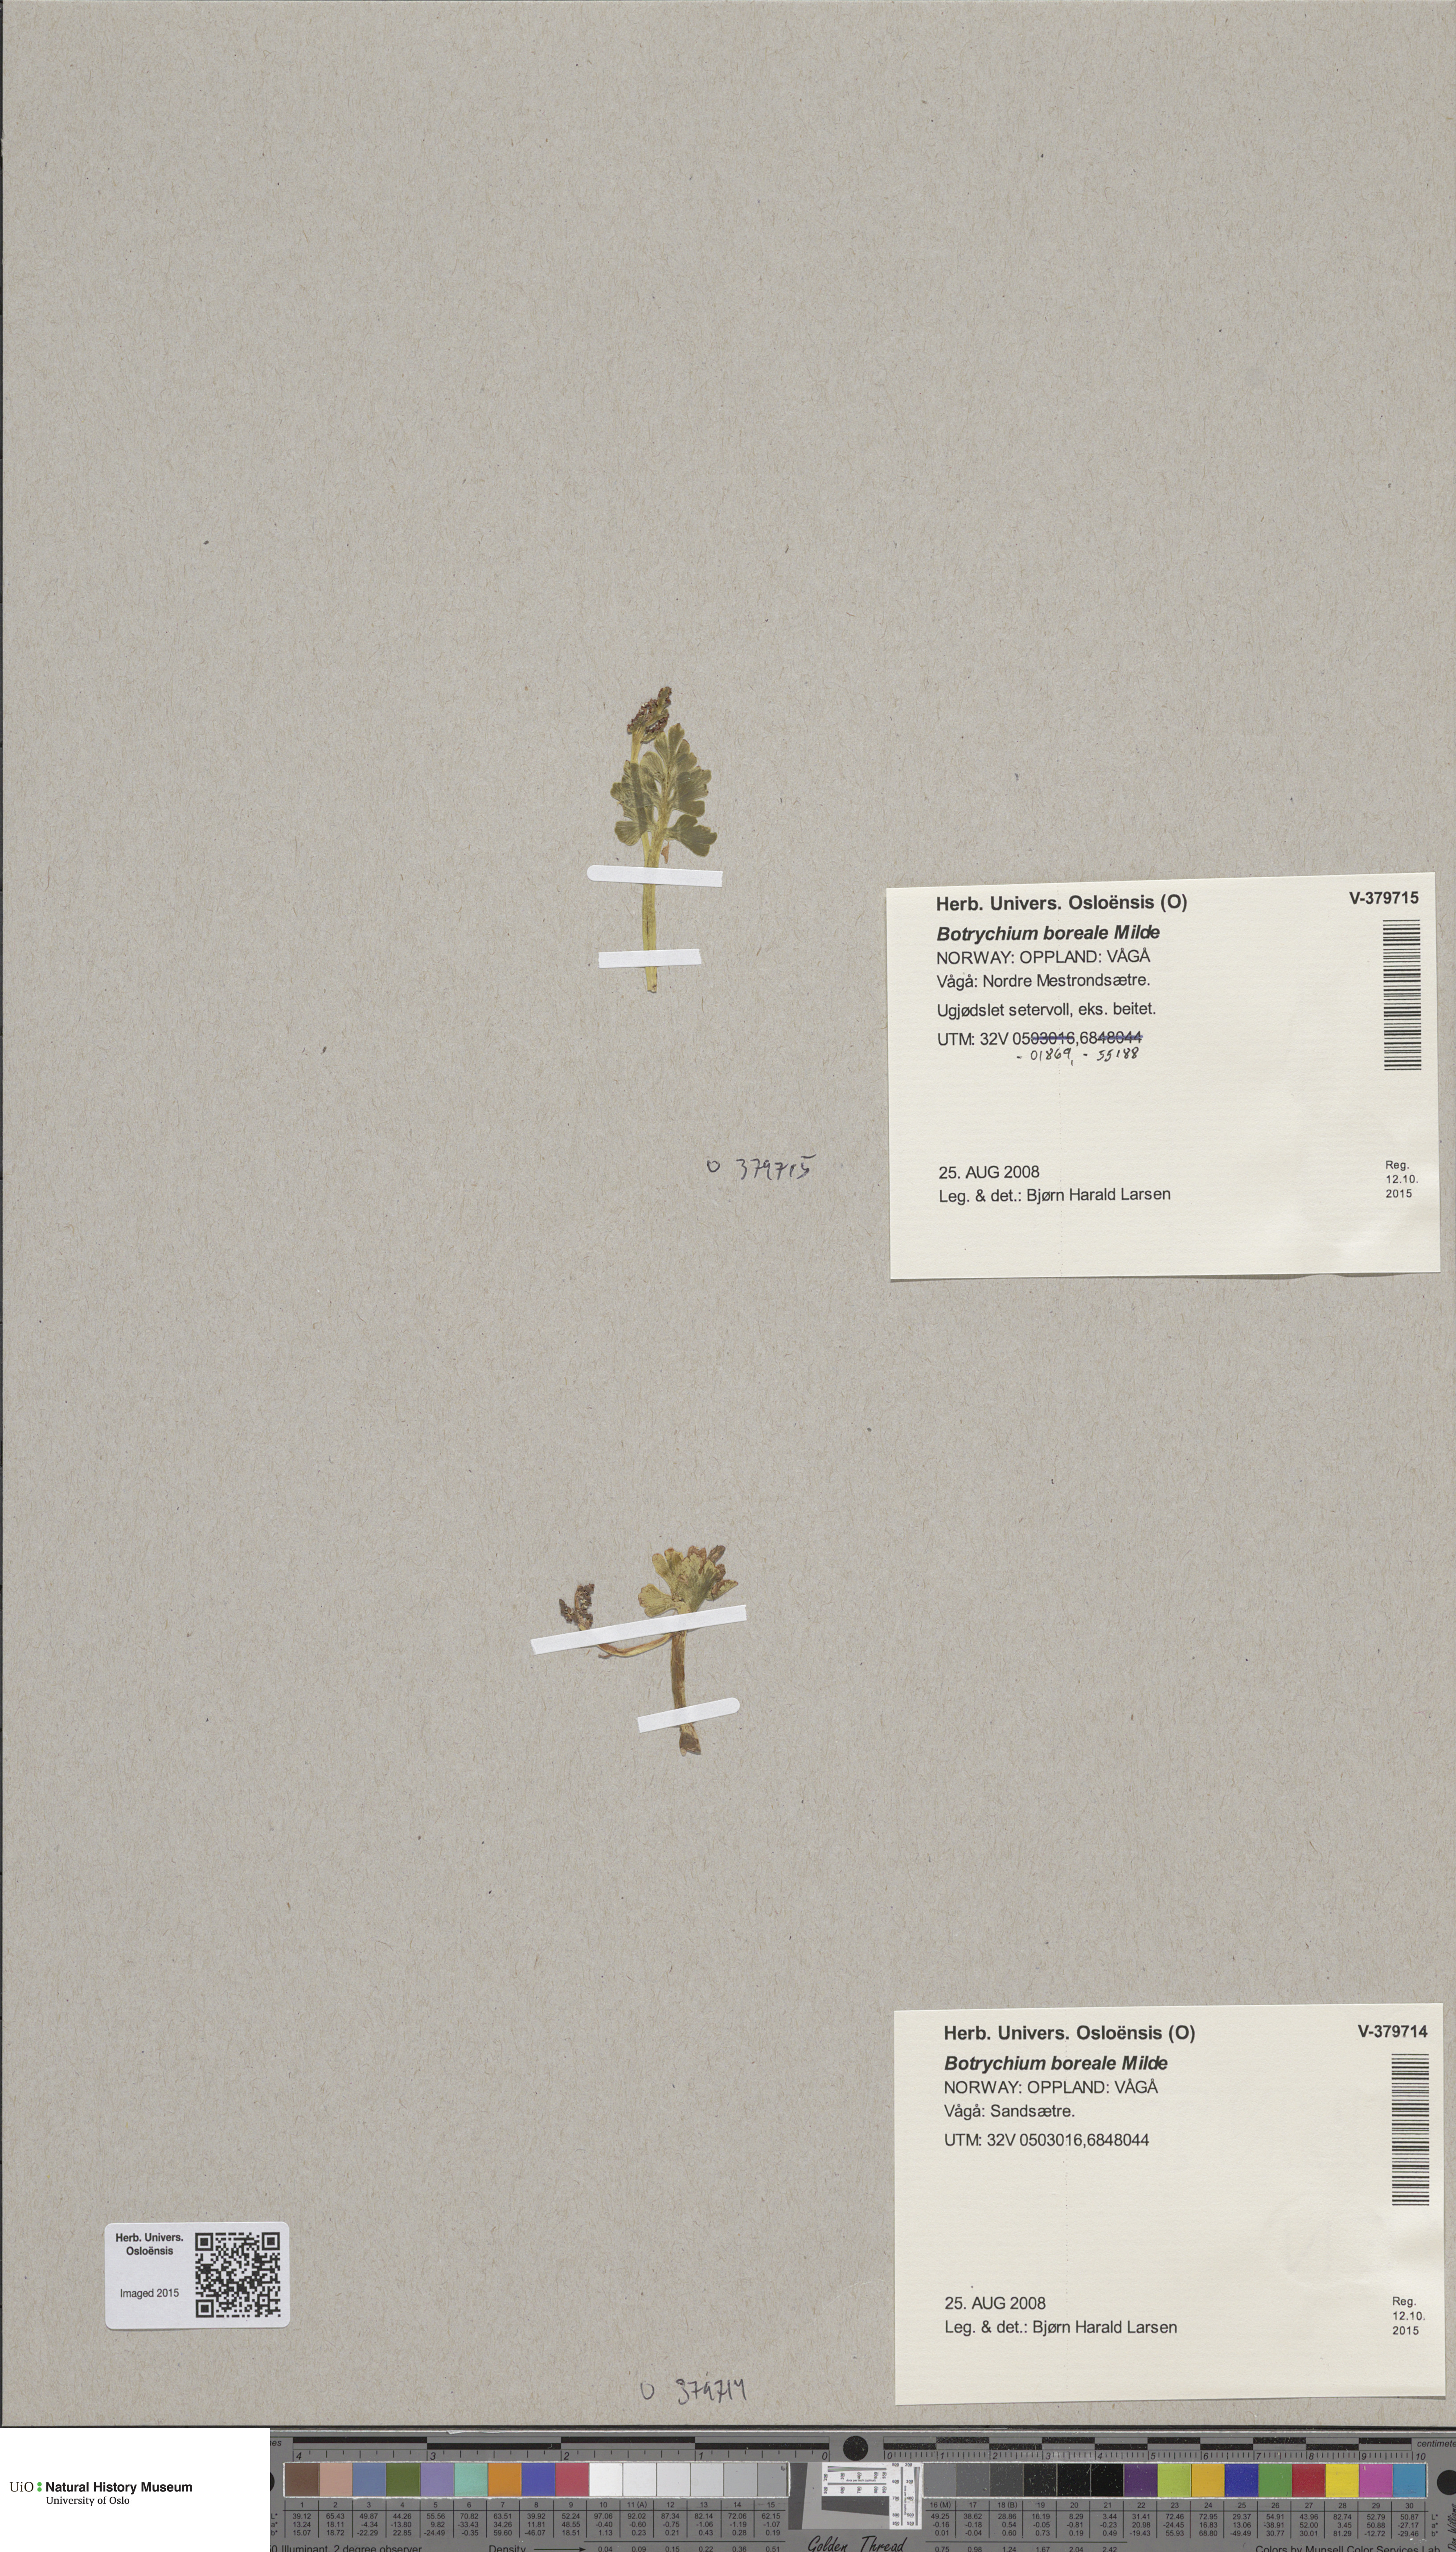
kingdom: Plantae
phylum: Tracheophyta
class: Polypodiopsida
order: Ophioglossales
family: Ophioglossaceae
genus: Botrychium
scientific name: Botrychium boreale
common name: Boreal moonwort
